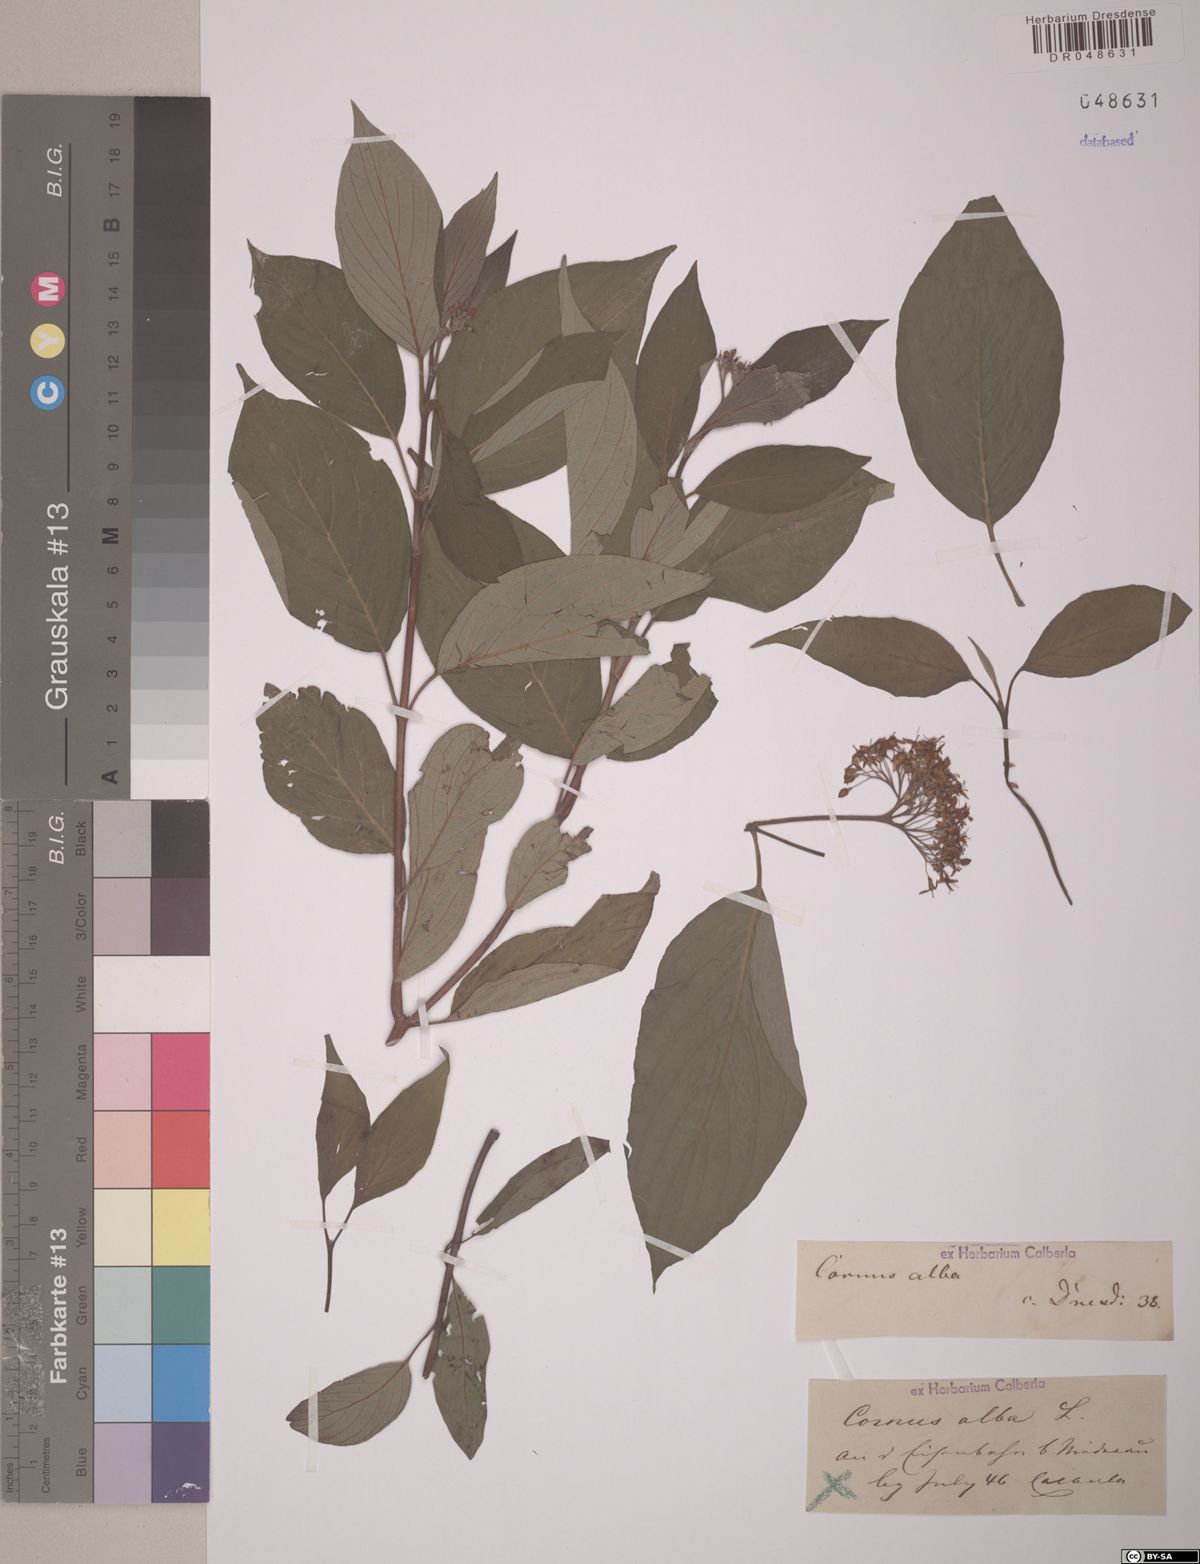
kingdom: Plantae
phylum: Tracheophyta
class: Magnoliopsida
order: Cornales
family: Cornaceae
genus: Cornus
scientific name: Cornus alba
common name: White dogwood
